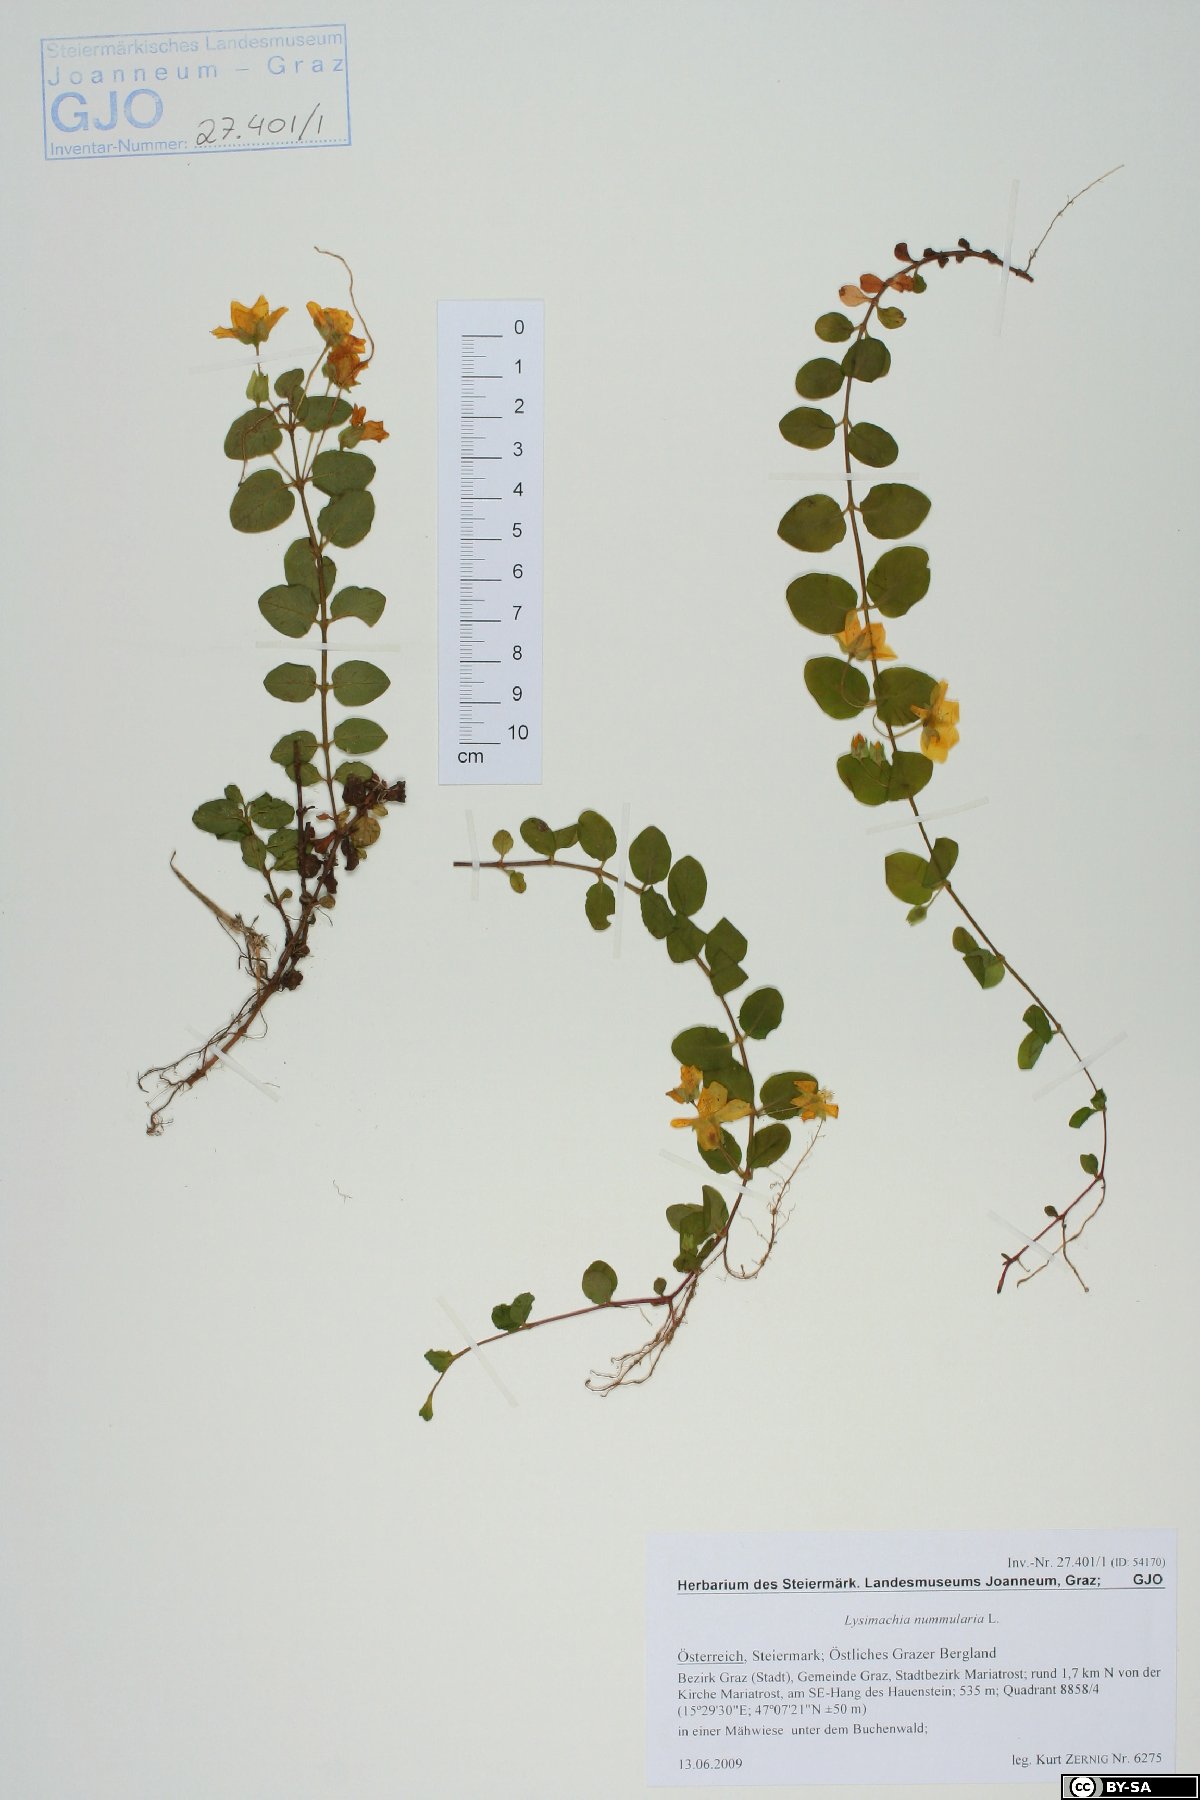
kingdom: Plantae
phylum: Tracheophyta
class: Magnoliopsida
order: Ericales
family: Primulaceae
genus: Lysimachia
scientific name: Lysimachia nummularia
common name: Moneywort
